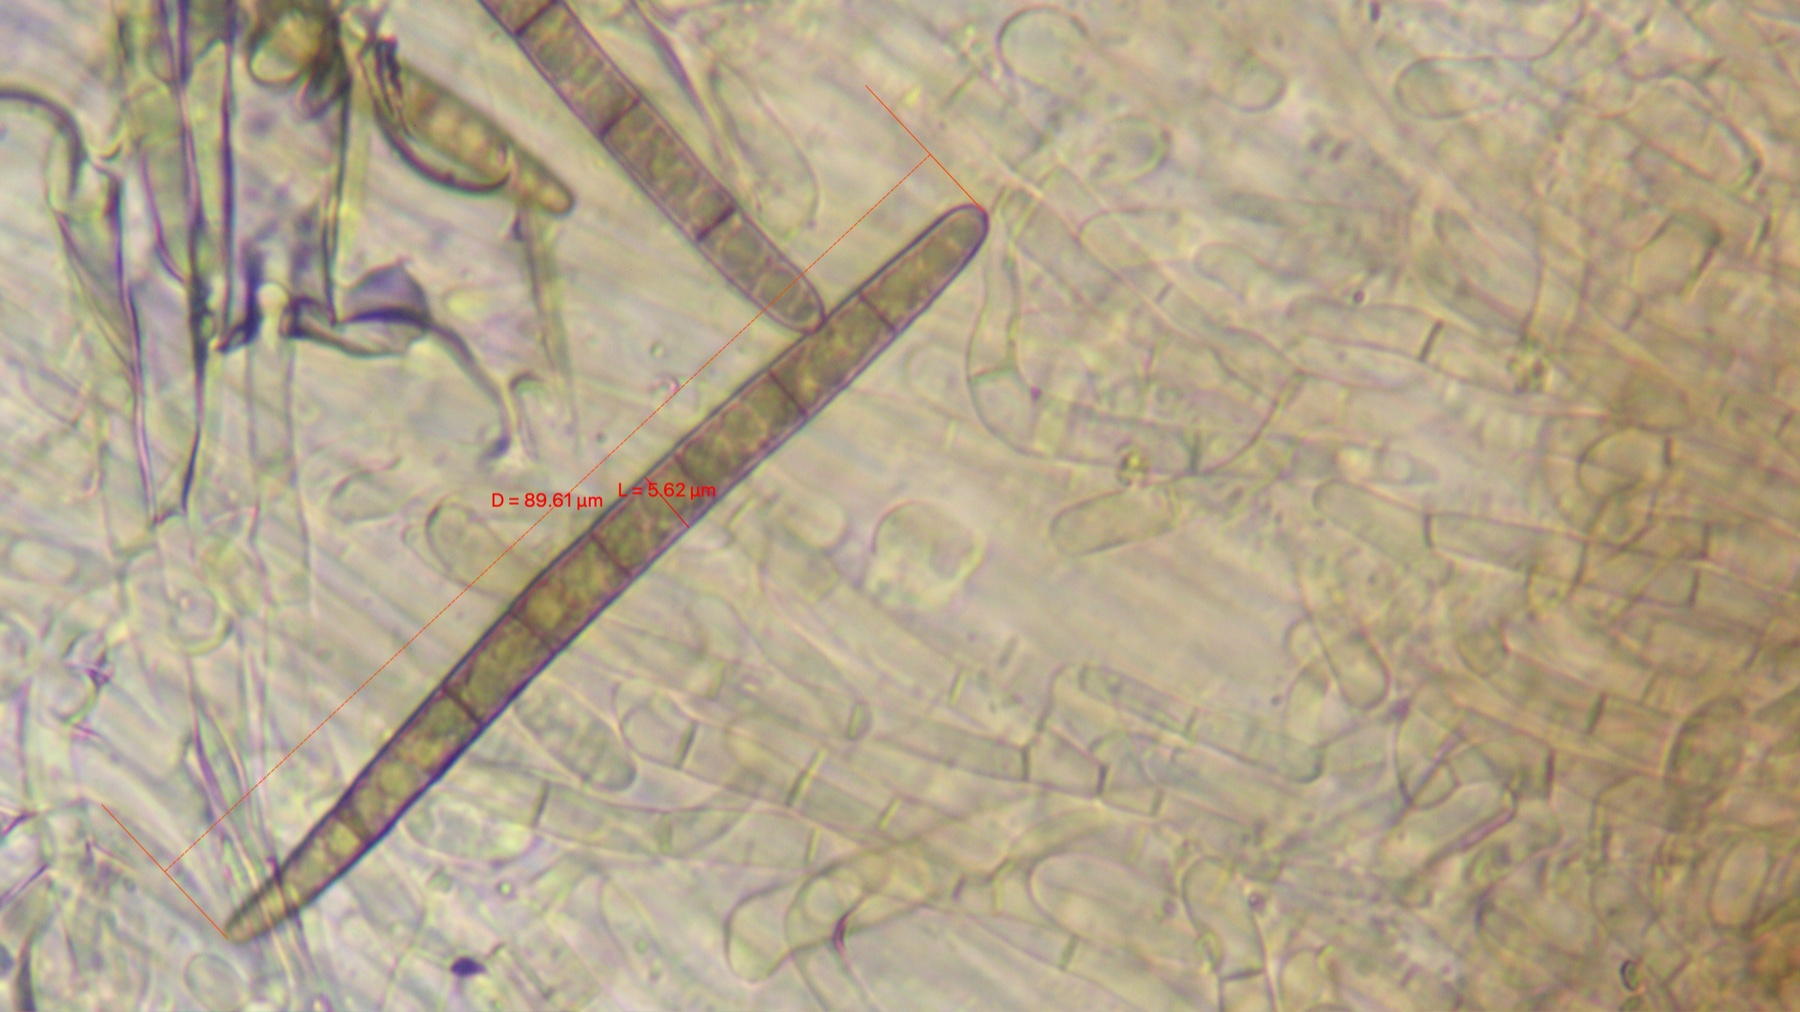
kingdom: Fungi
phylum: Ascomycota
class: Geoglossomycetes
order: Geoglossales
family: Geoglossaceae
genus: Geoglossum
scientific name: Geoglossum umbratile
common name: slank jordtunge
